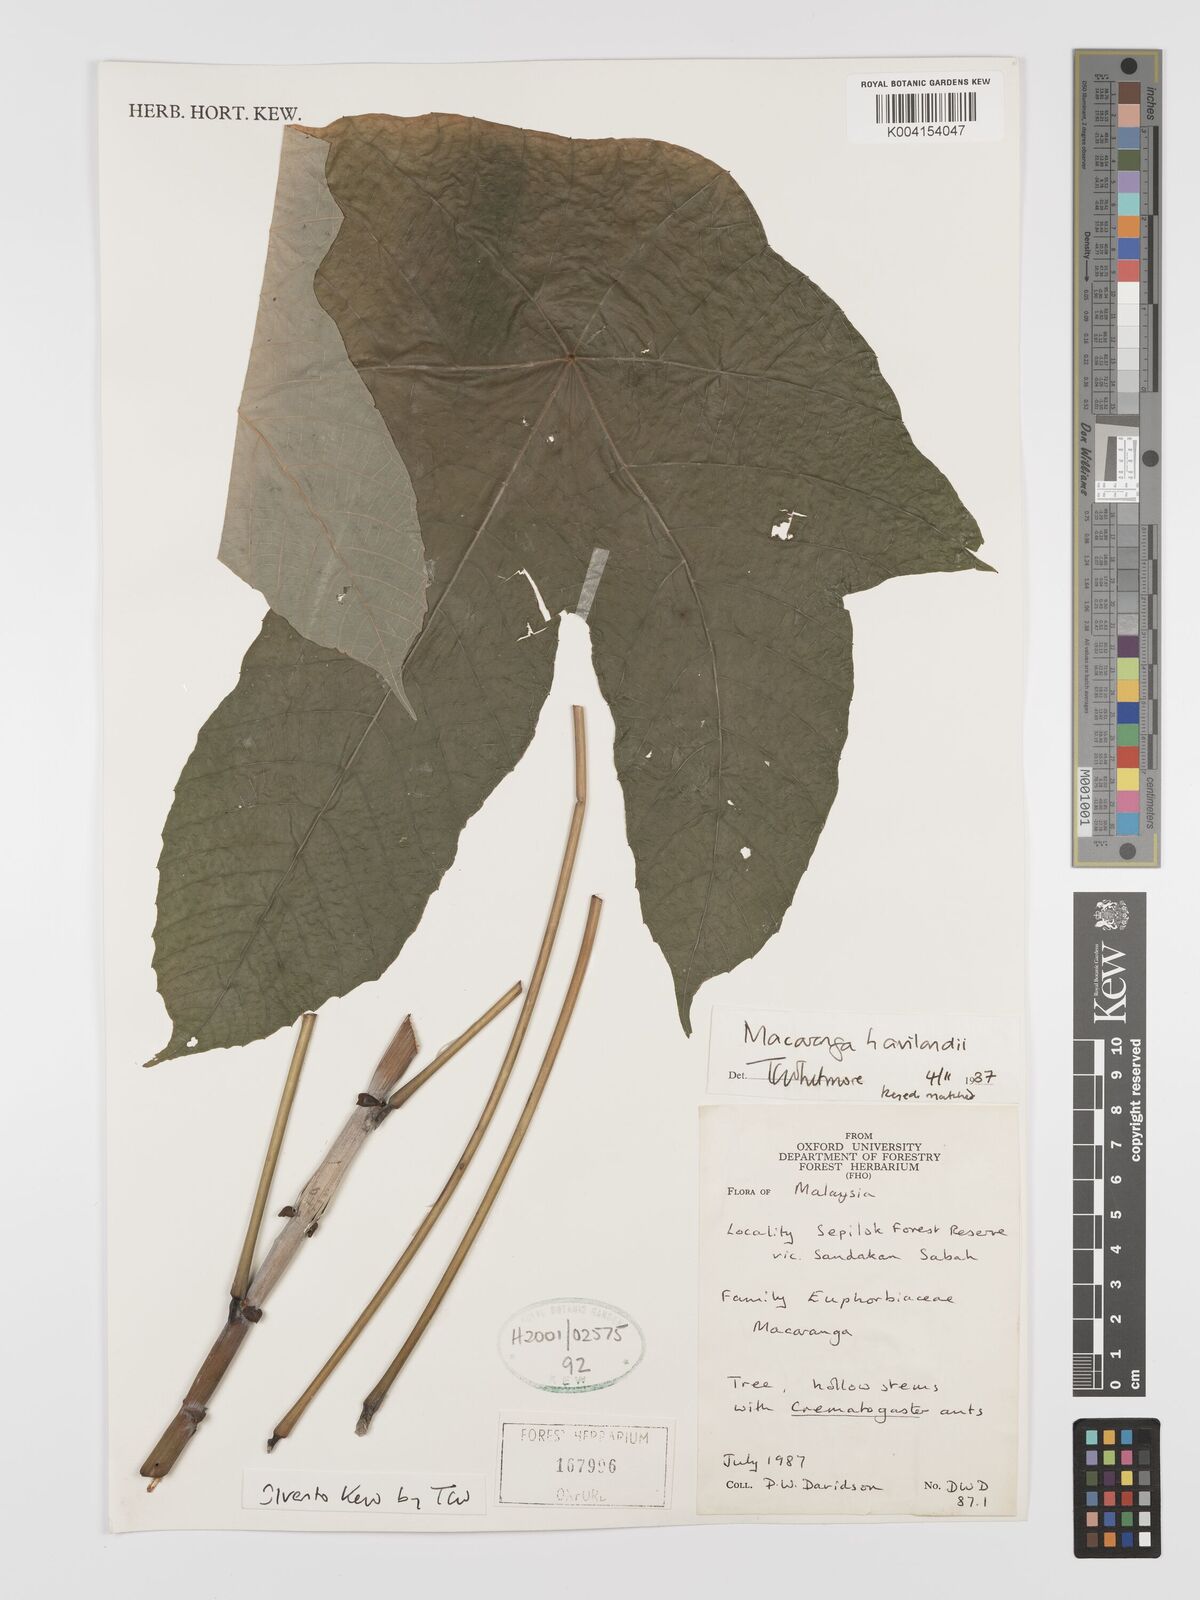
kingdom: Plantae
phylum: Tracheophyta
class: Magnoliopsida
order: Malpighiales
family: Euphorbiaceae
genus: Macaranga
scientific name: Macaranga havilandii
